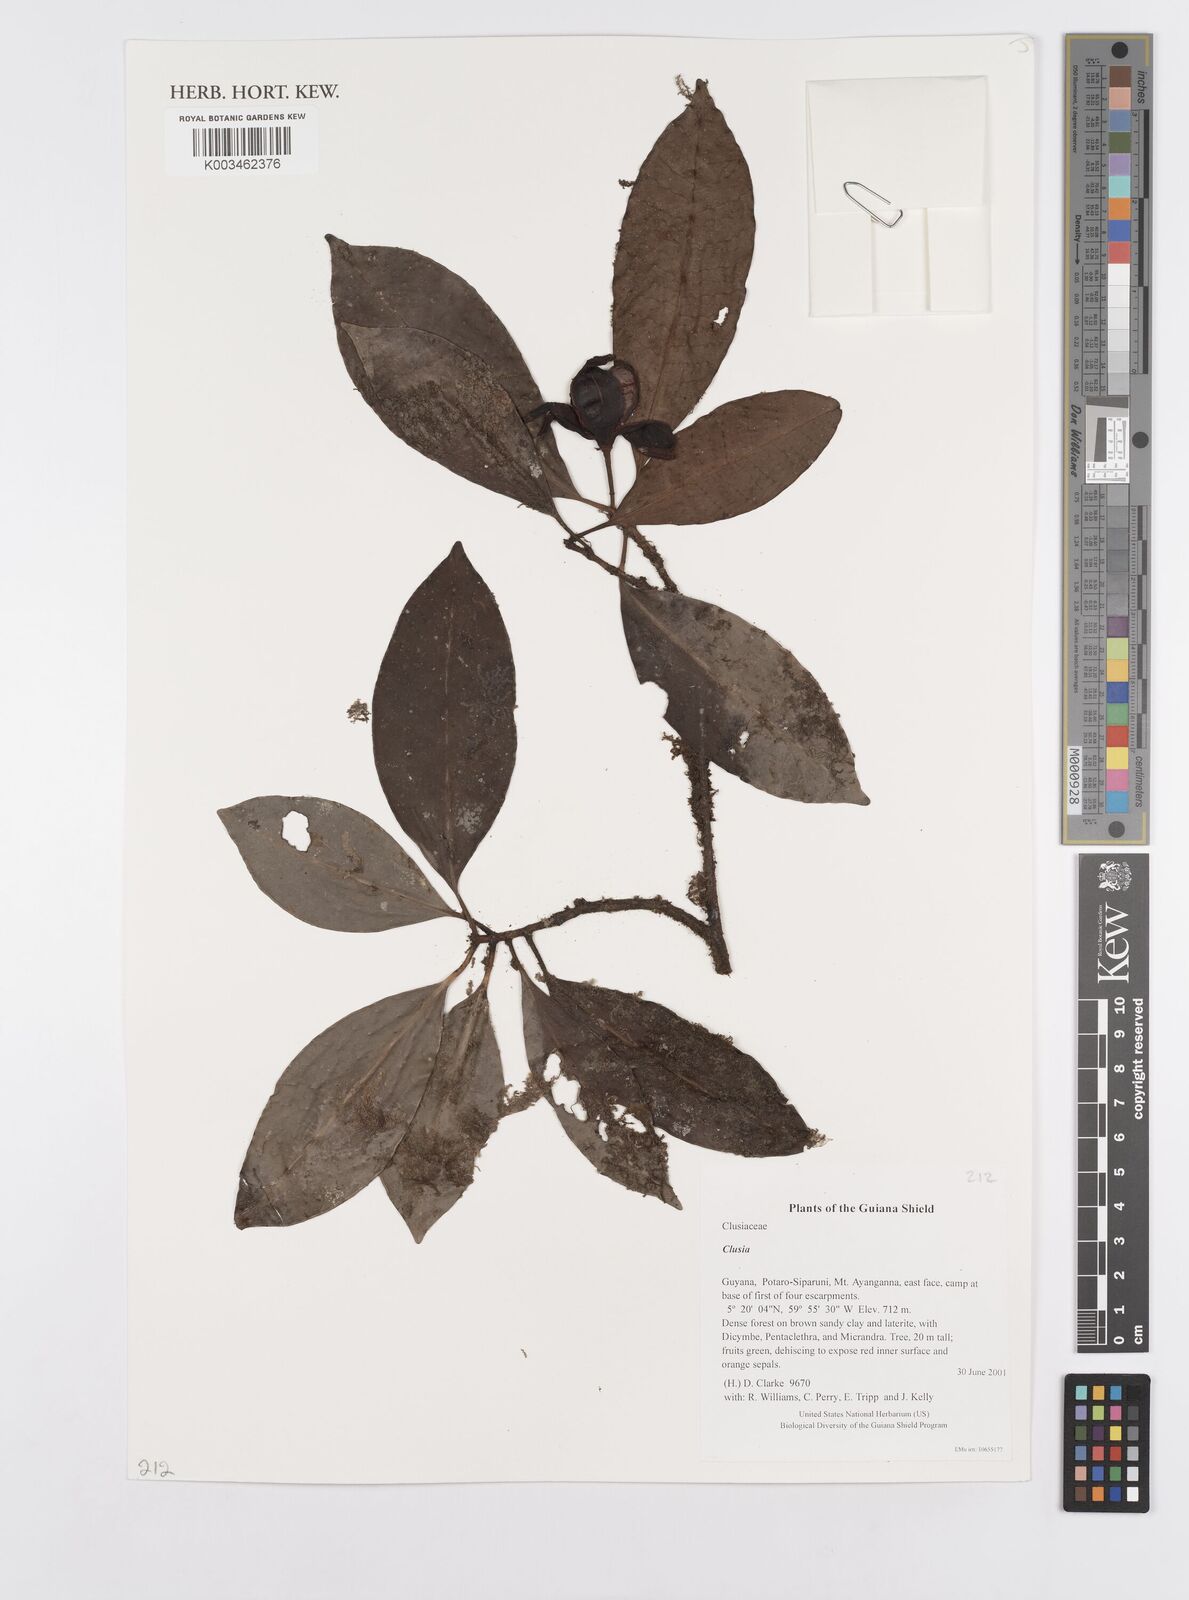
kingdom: Plantae
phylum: Tracheophyta
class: Magnoliopsida
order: Malpighiales
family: Clusiaceae
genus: Clusia
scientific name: Clusia
